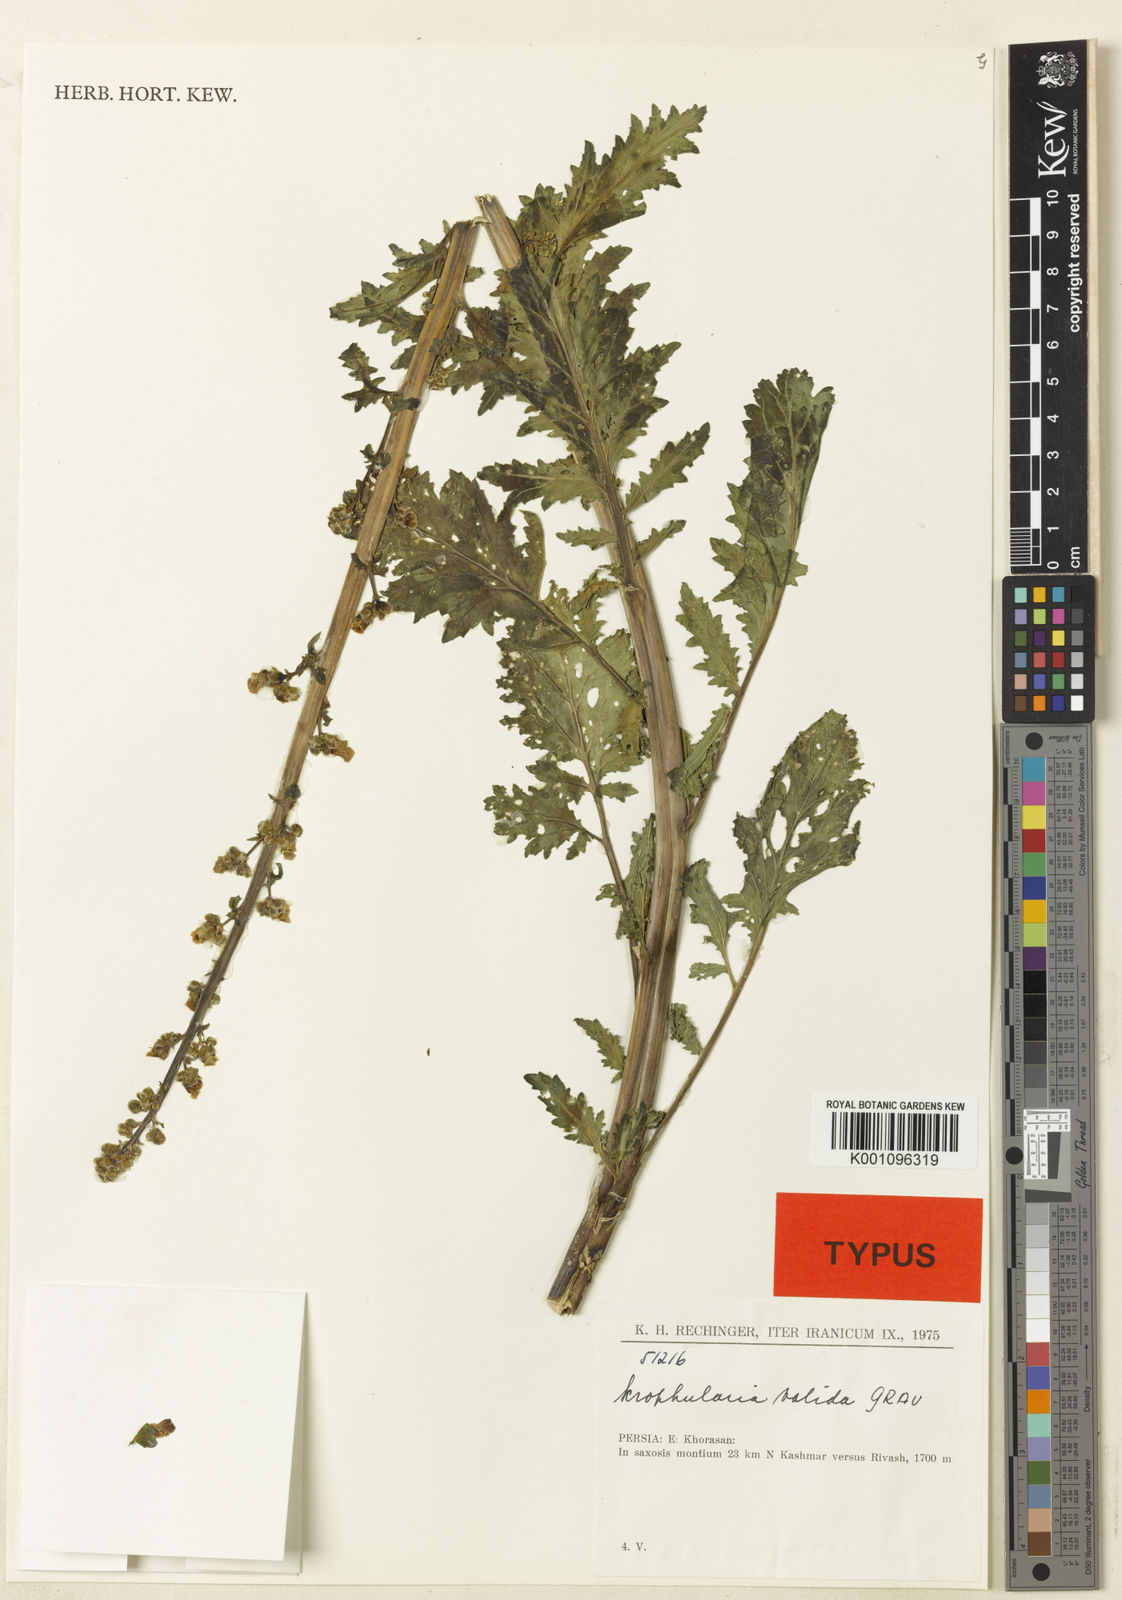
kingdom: Plantae
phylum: Tracheophyta
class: Magnoliopsida
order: Lamiales
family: Scrophulariaceae
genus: Scrophularia
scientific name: Scrophularia valida
